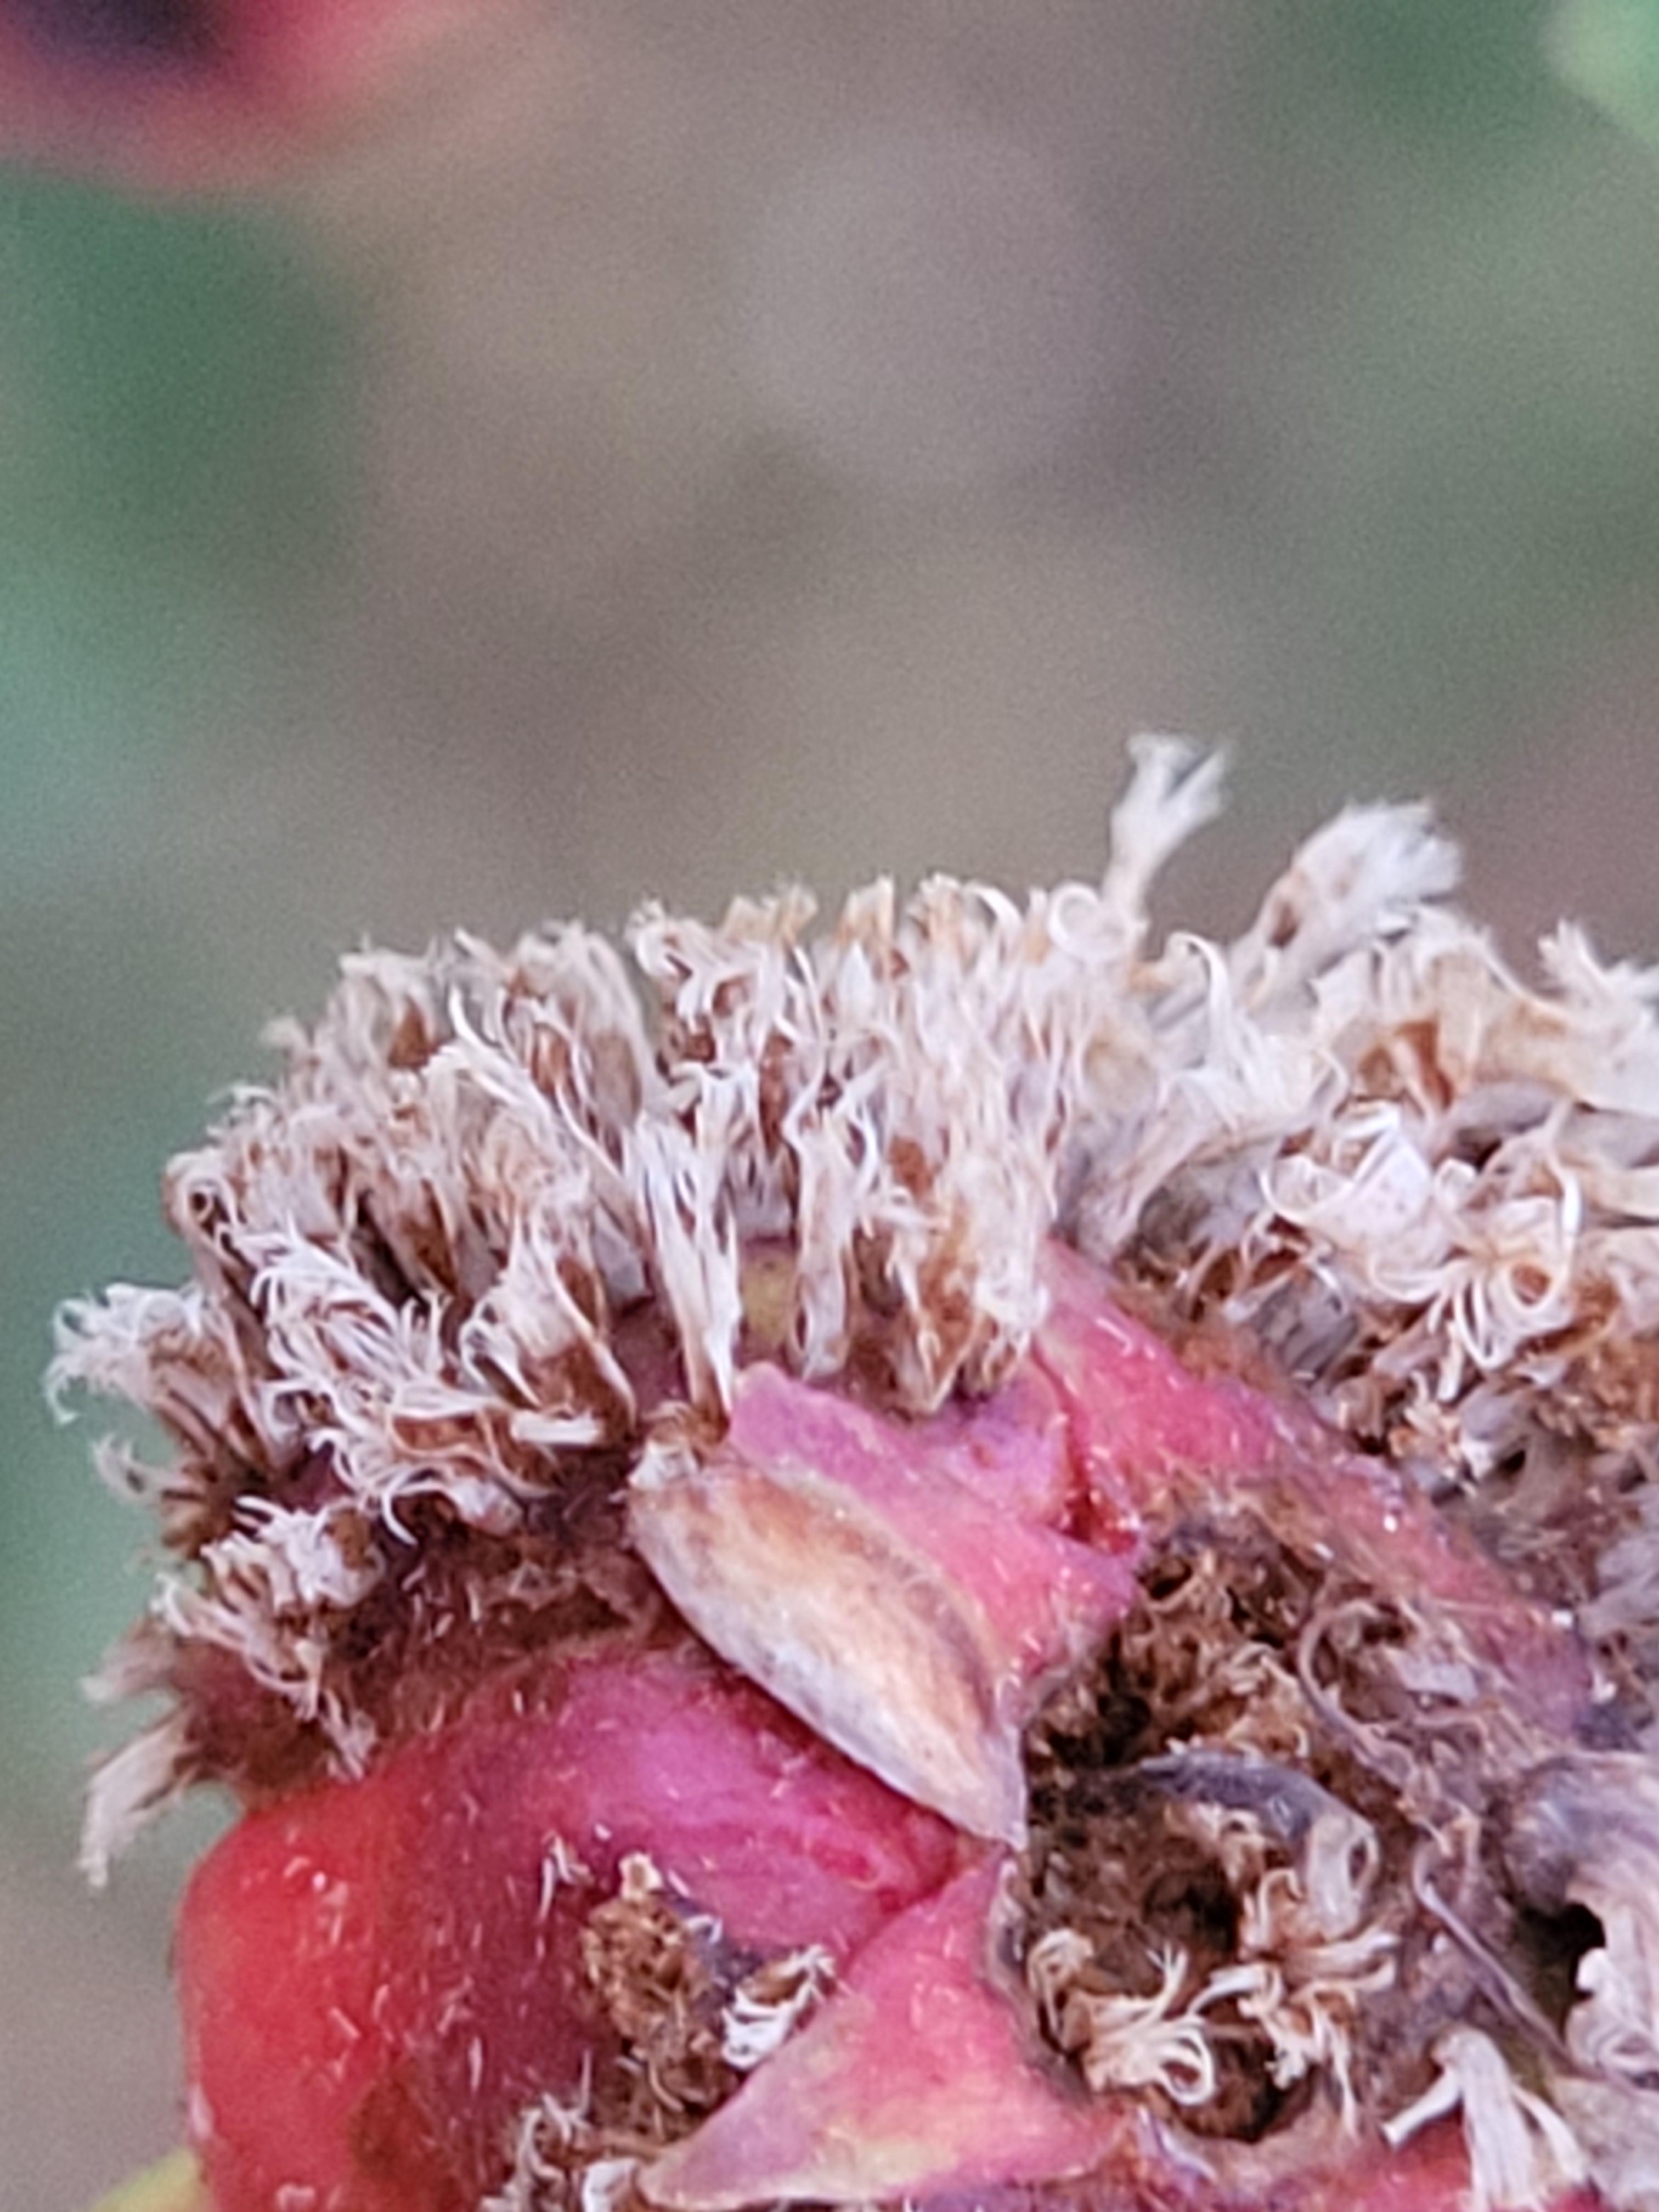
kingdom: Fungi
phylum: Basidiomycota
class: Pucciniomycetes
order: Pucciniales
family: Gymnosporangiaceae
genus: Gymnosporangium
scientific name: Gymnosporangium
